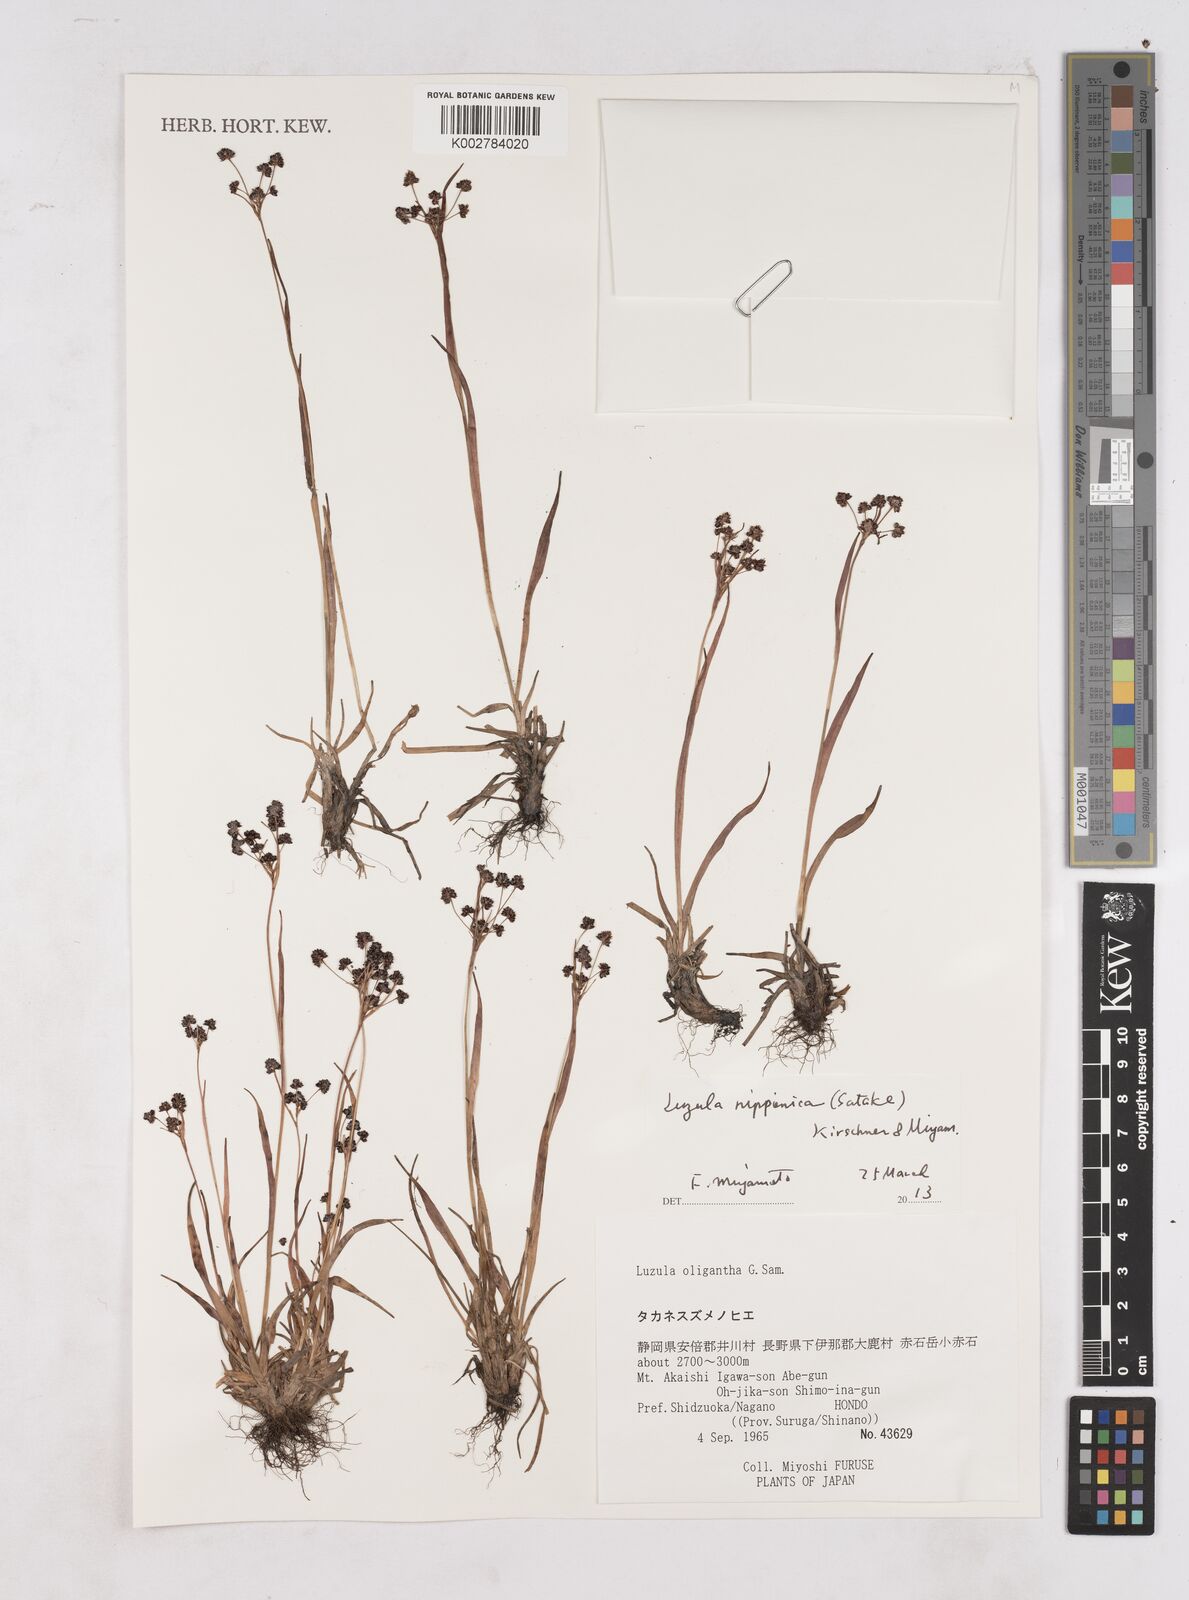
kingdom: Plantae
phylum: Tracheophyta
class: Liliopsida
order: Poales
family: Juncaceae
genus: Luzula
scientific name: Luzula oligantha
